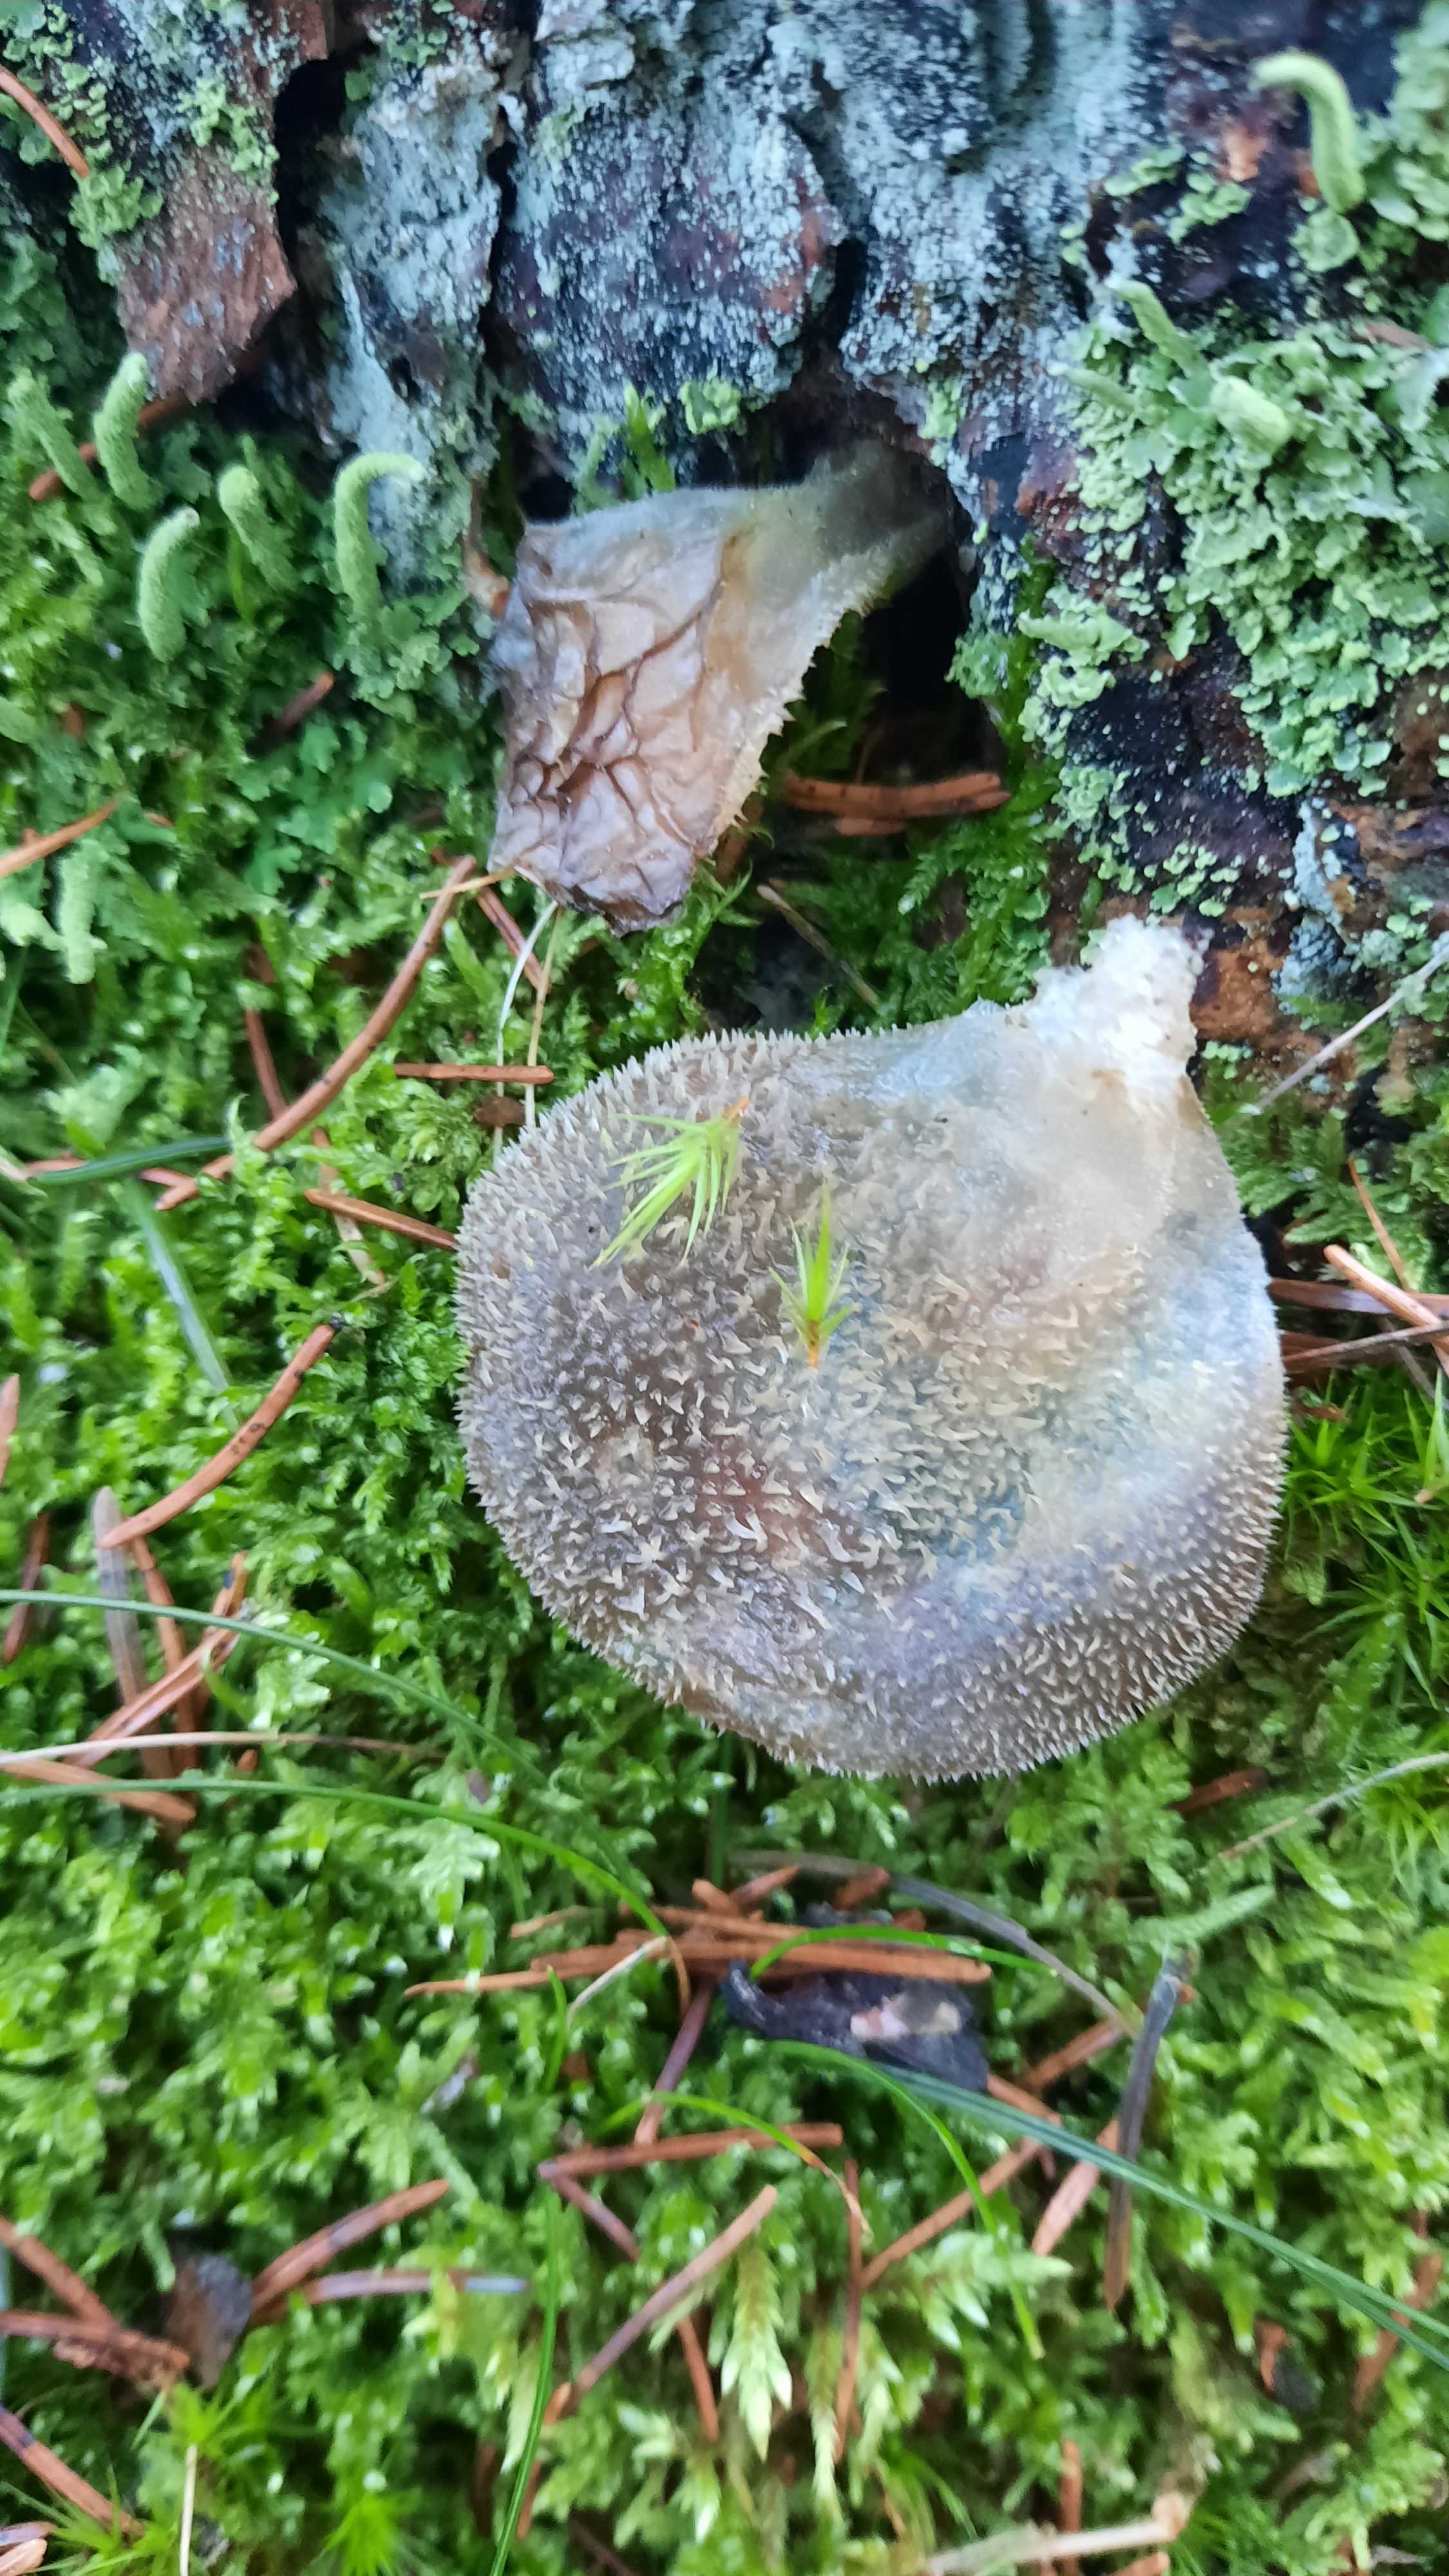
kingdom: Fungi
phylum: Basidiomycota
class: Agaricomycetes
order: Auriculariales
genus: Pseudohydnum
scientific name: Pseudohydnum gelatinosum
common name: bævretand
